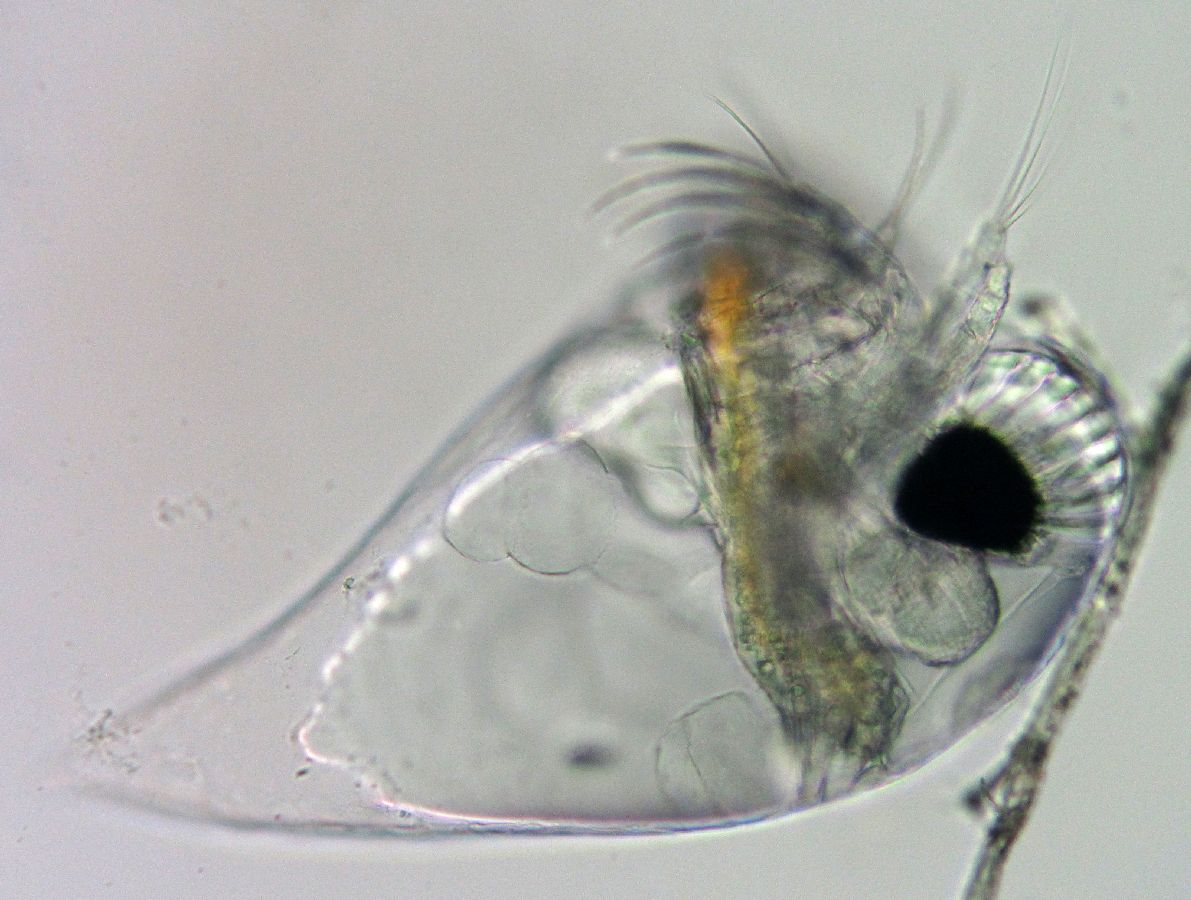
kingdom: Animalia
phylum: Arthropoda
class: Branchiopoda
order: Diplostraca
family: Podonidae
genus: Evadne
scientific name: Evadne nordmanni
